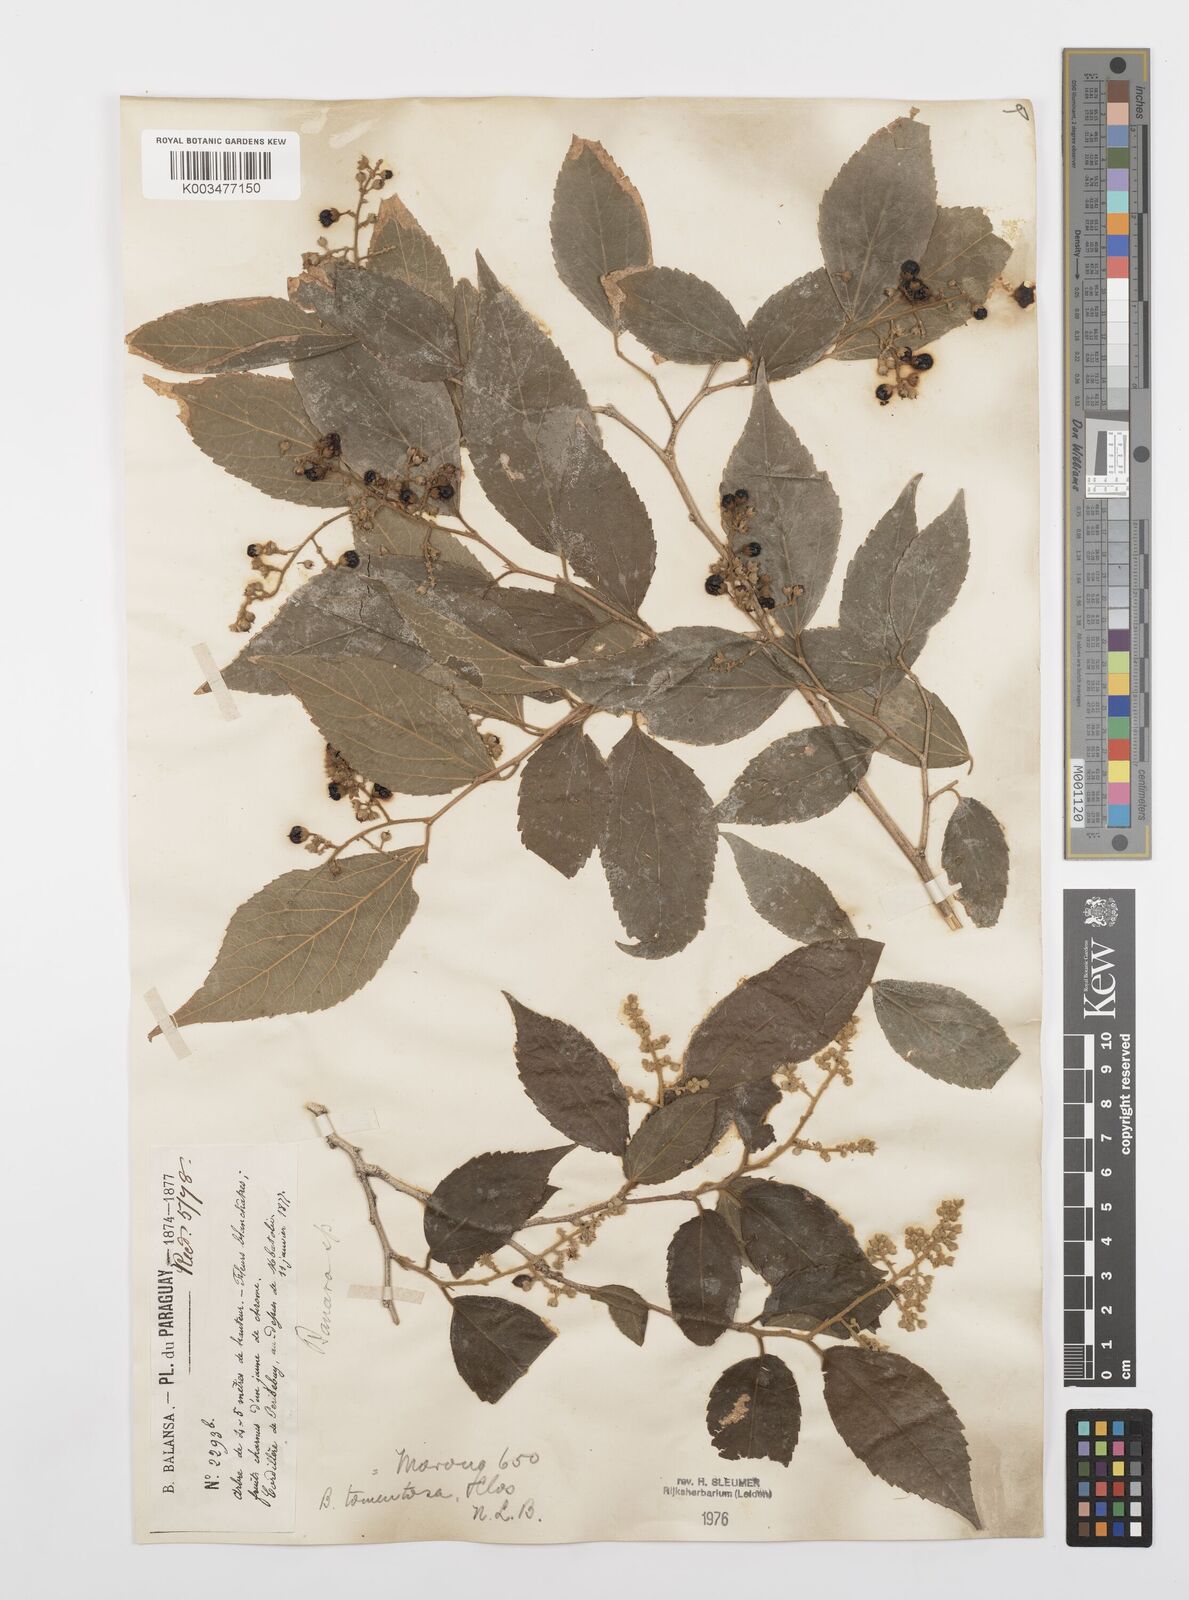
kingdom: Plantae
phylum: Tracheophyta
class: Magnoliopsida
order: Malpighiales
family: Salicaceae
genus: Banara
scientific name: Banara tomentosa
